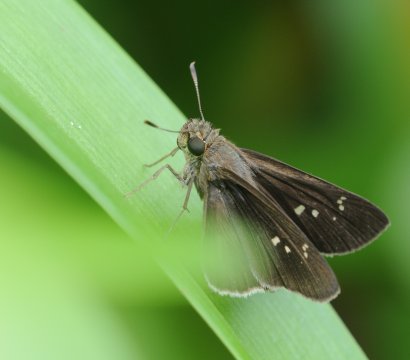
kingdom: Animalia
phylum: Arthropoda
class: Insecta
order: Lepidoptera
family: Hesperiidae
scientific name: Hesperiidae
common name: Skippers
